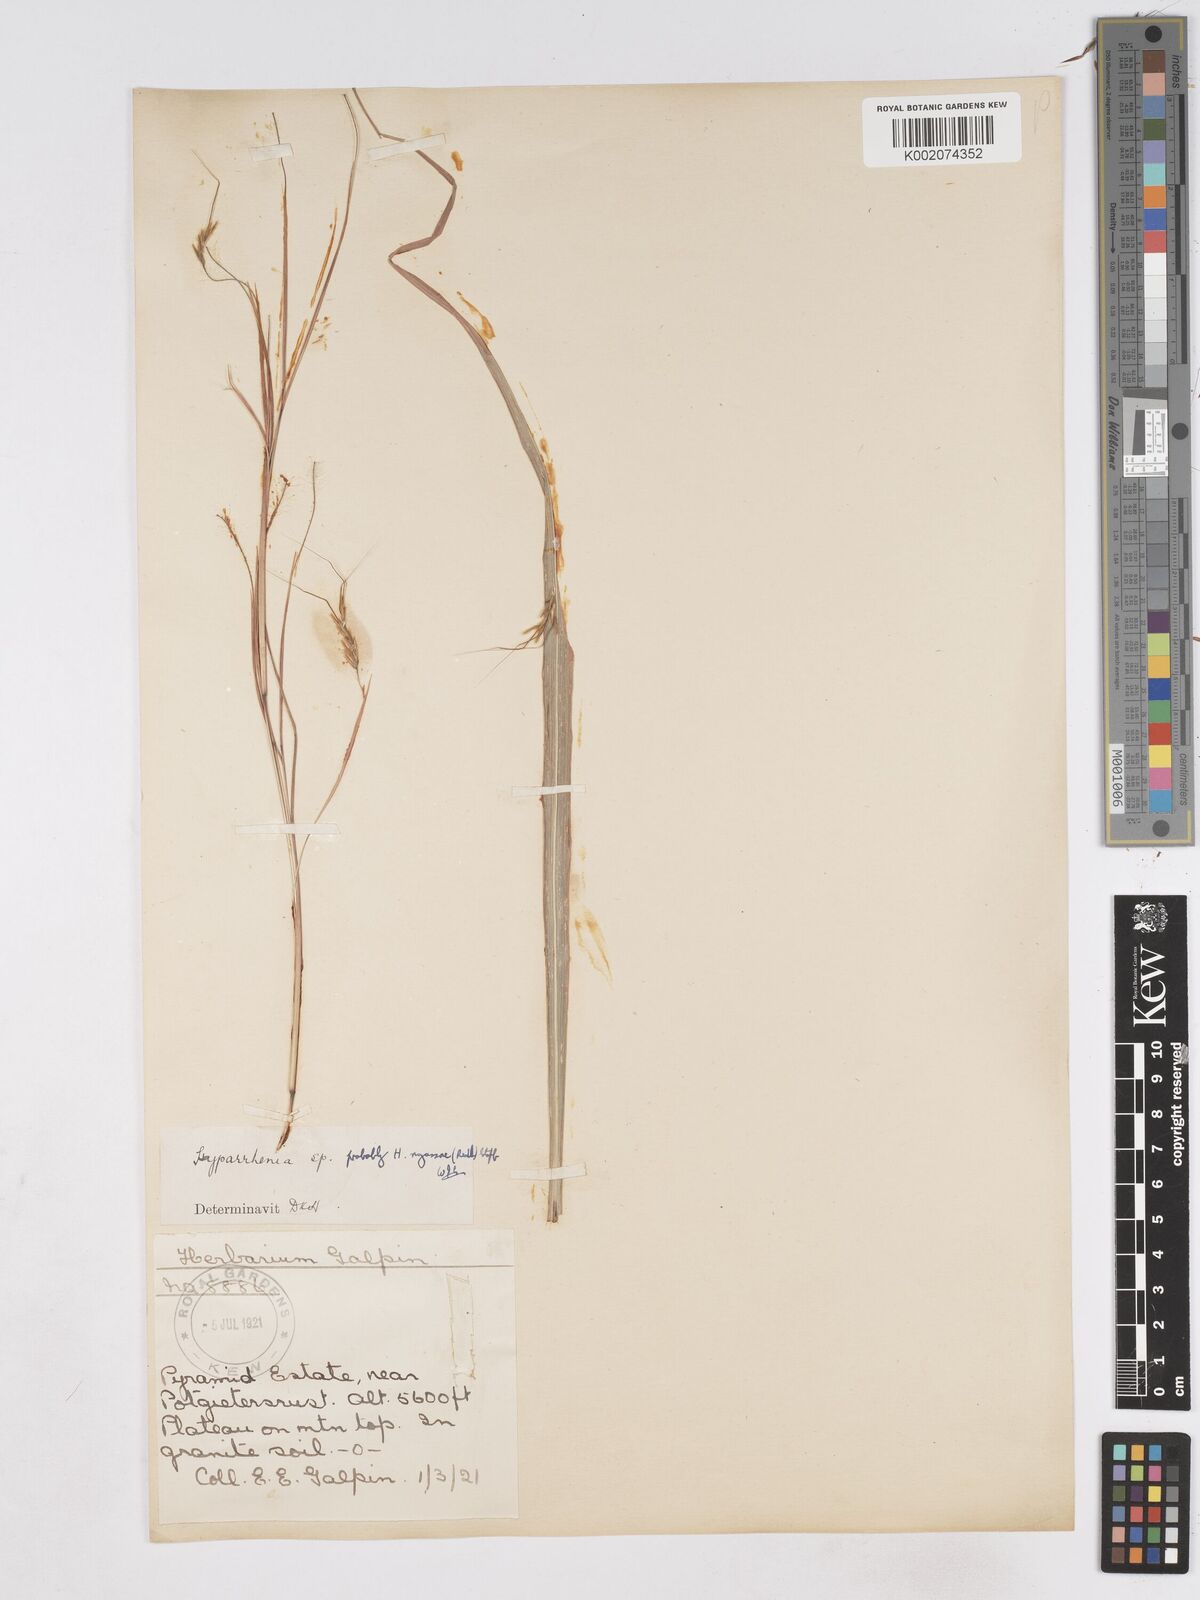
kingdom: Plantae
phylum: Tracheophyta
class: Liliopsida
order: Poales
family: Poaceae
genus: Hyparrhenia
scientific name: Hyparrhenia nyassae
